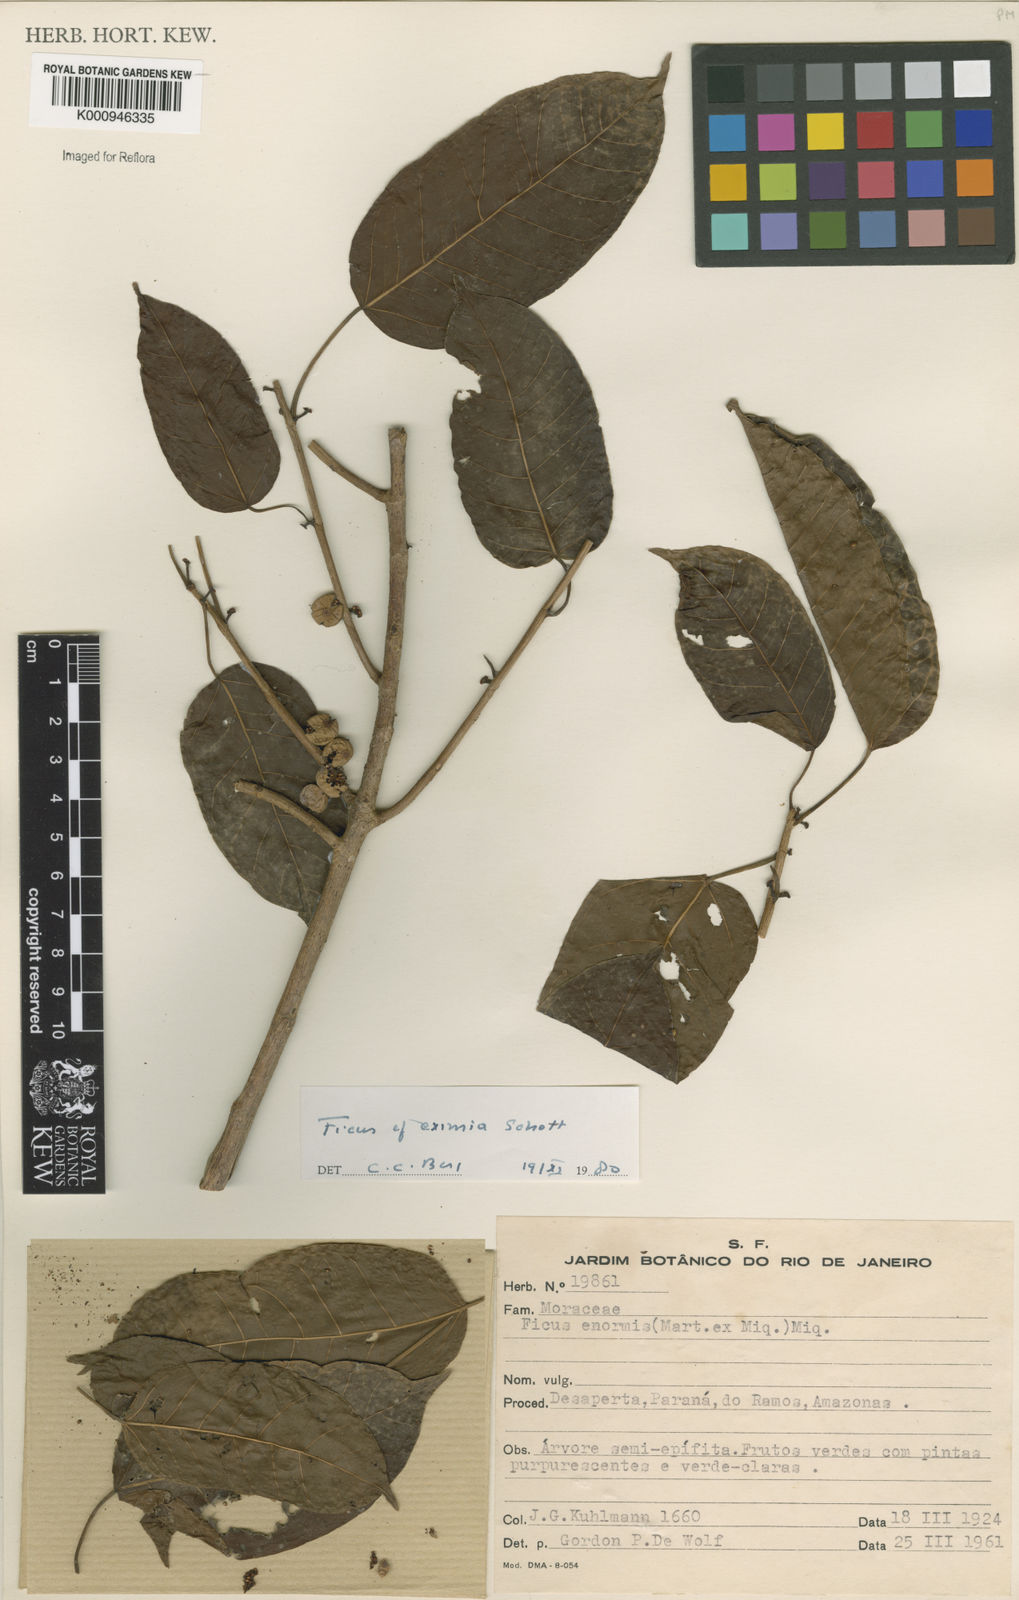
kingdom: Plantae
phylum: Tracheophyta
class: Magnoliopsida
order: Rosales
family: Moraceae
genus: Ficus
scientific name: Ficus eximia
